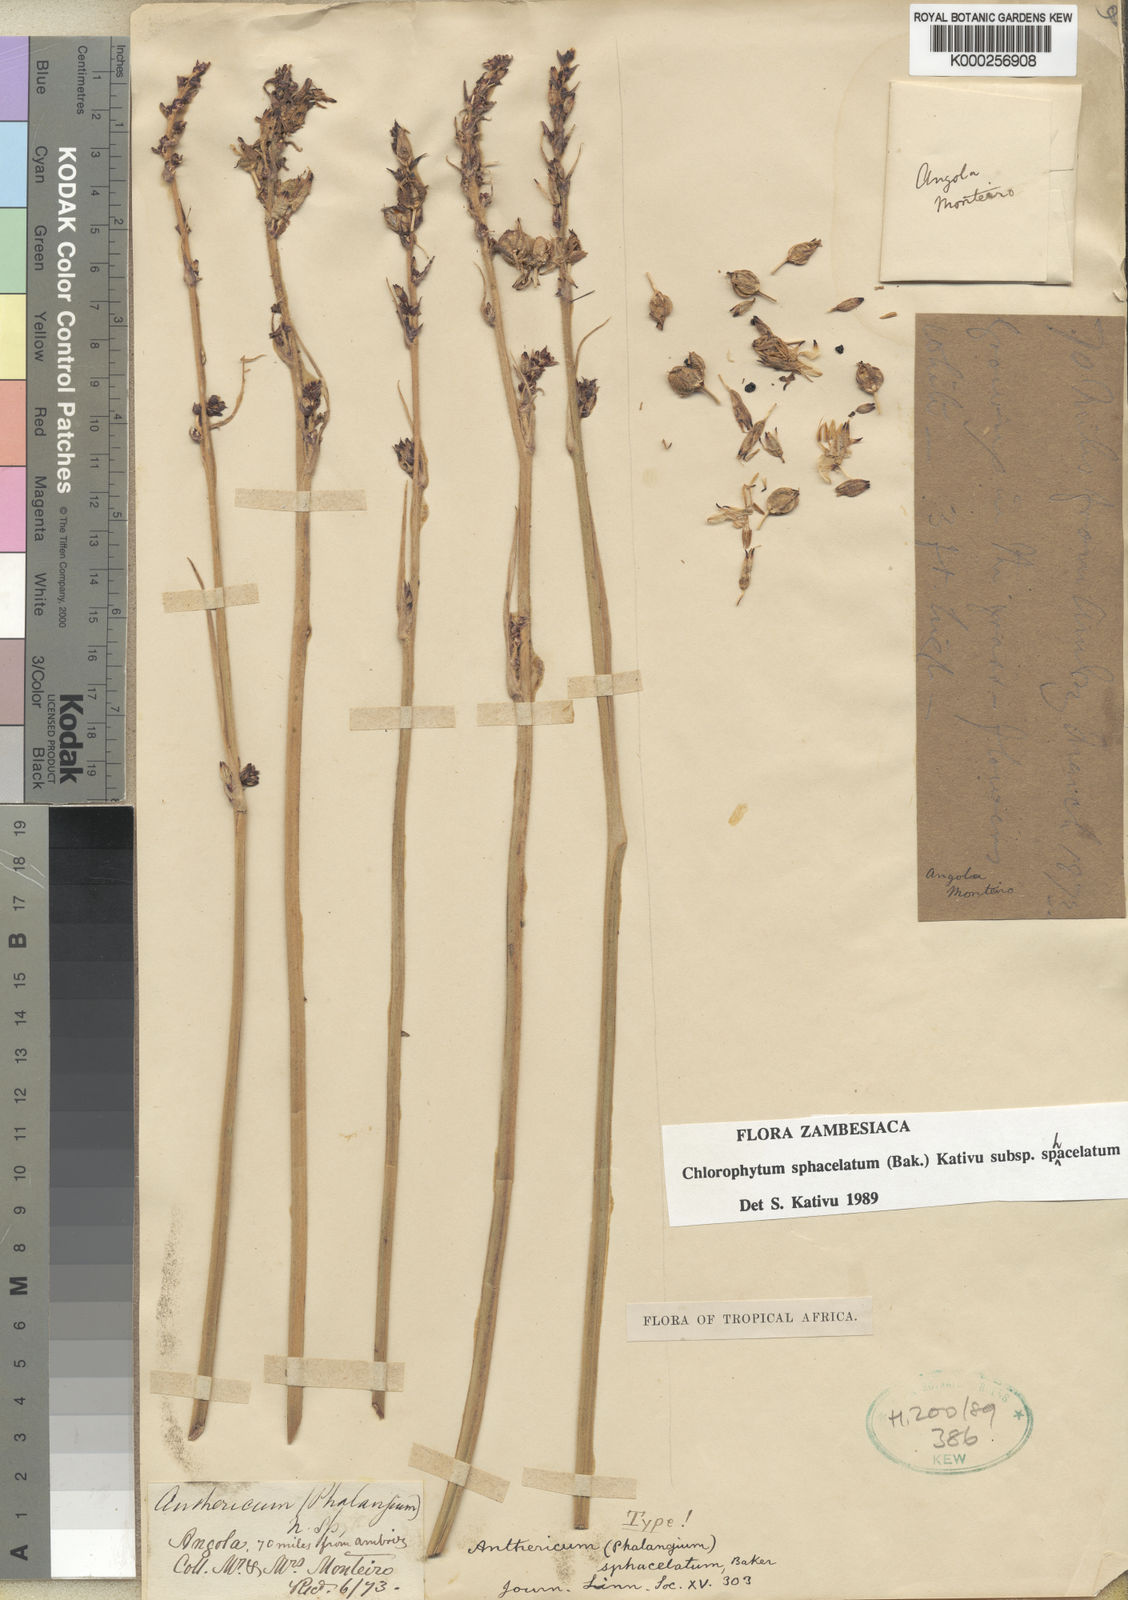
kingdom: Plantae
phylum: Tracheophyta
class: Liliopsida
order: Asparagales
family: Asparagaceae
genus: Chlorophytum
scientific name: Chlorophytum sphacelatum
